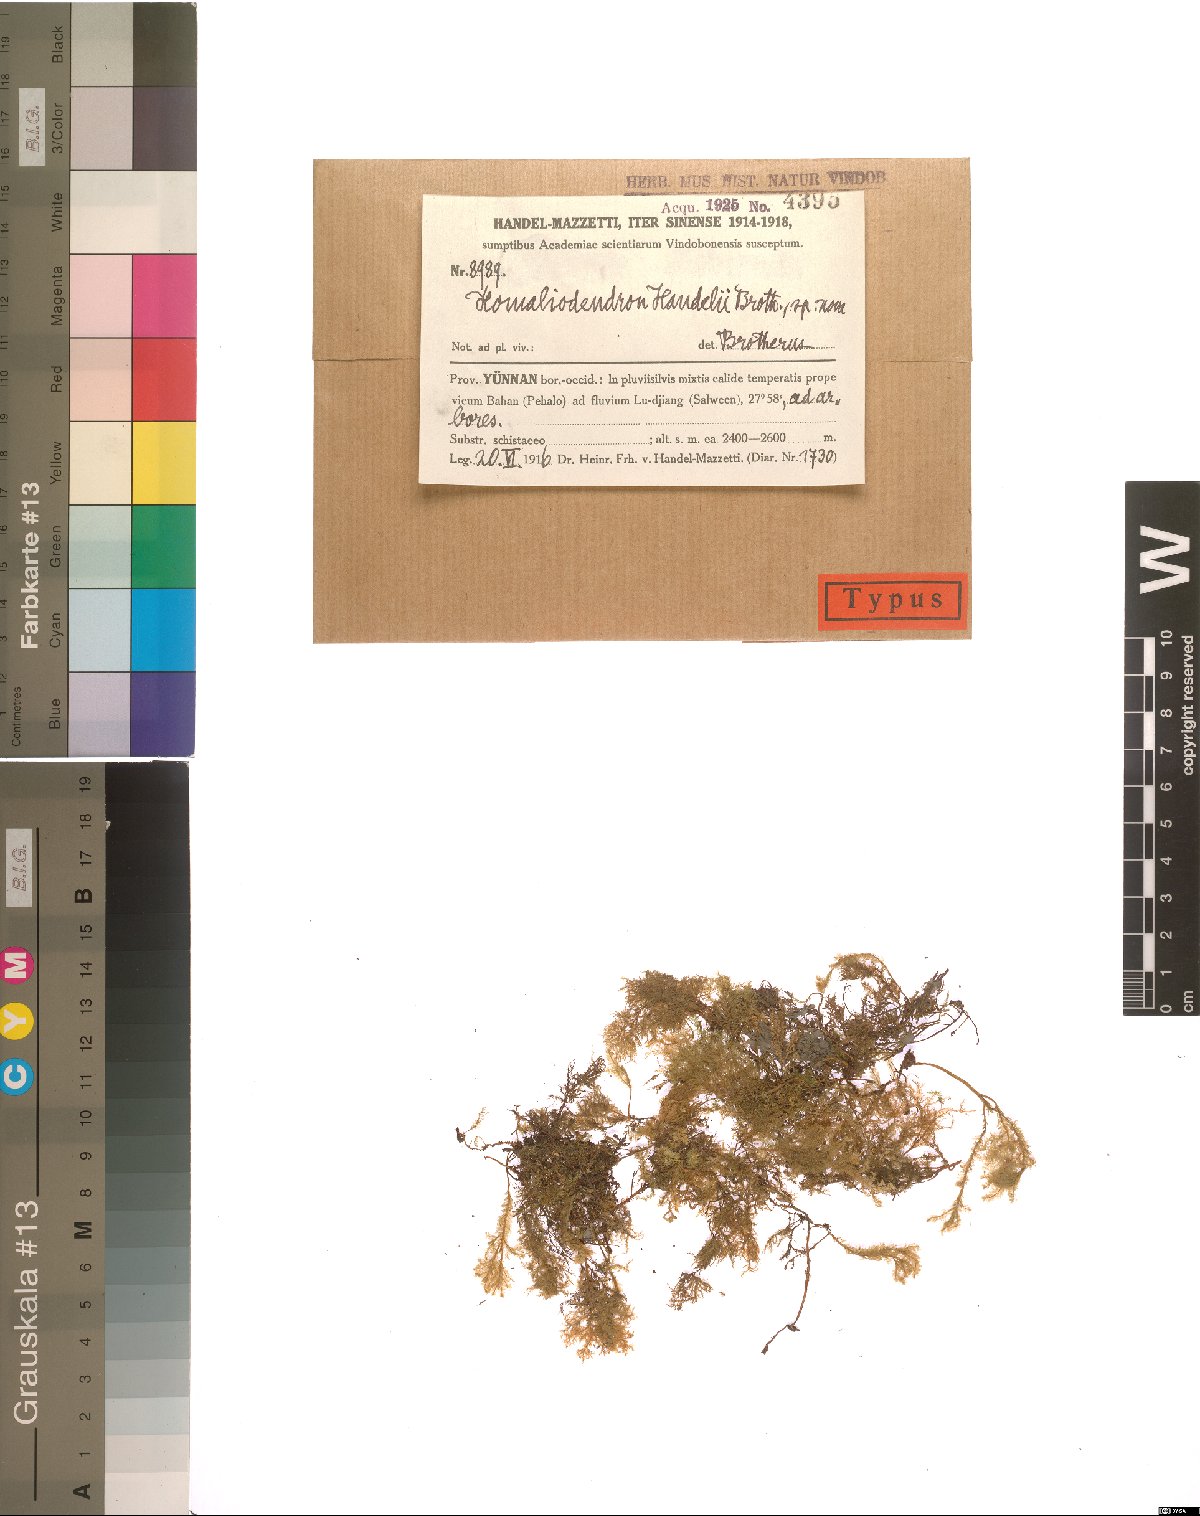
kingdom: Plantae
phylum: Bryophyta
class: Bryopsida
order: Hypnales
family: Neckeraceae
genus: Homaliodendron
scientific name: Homaliodendron papillosum
